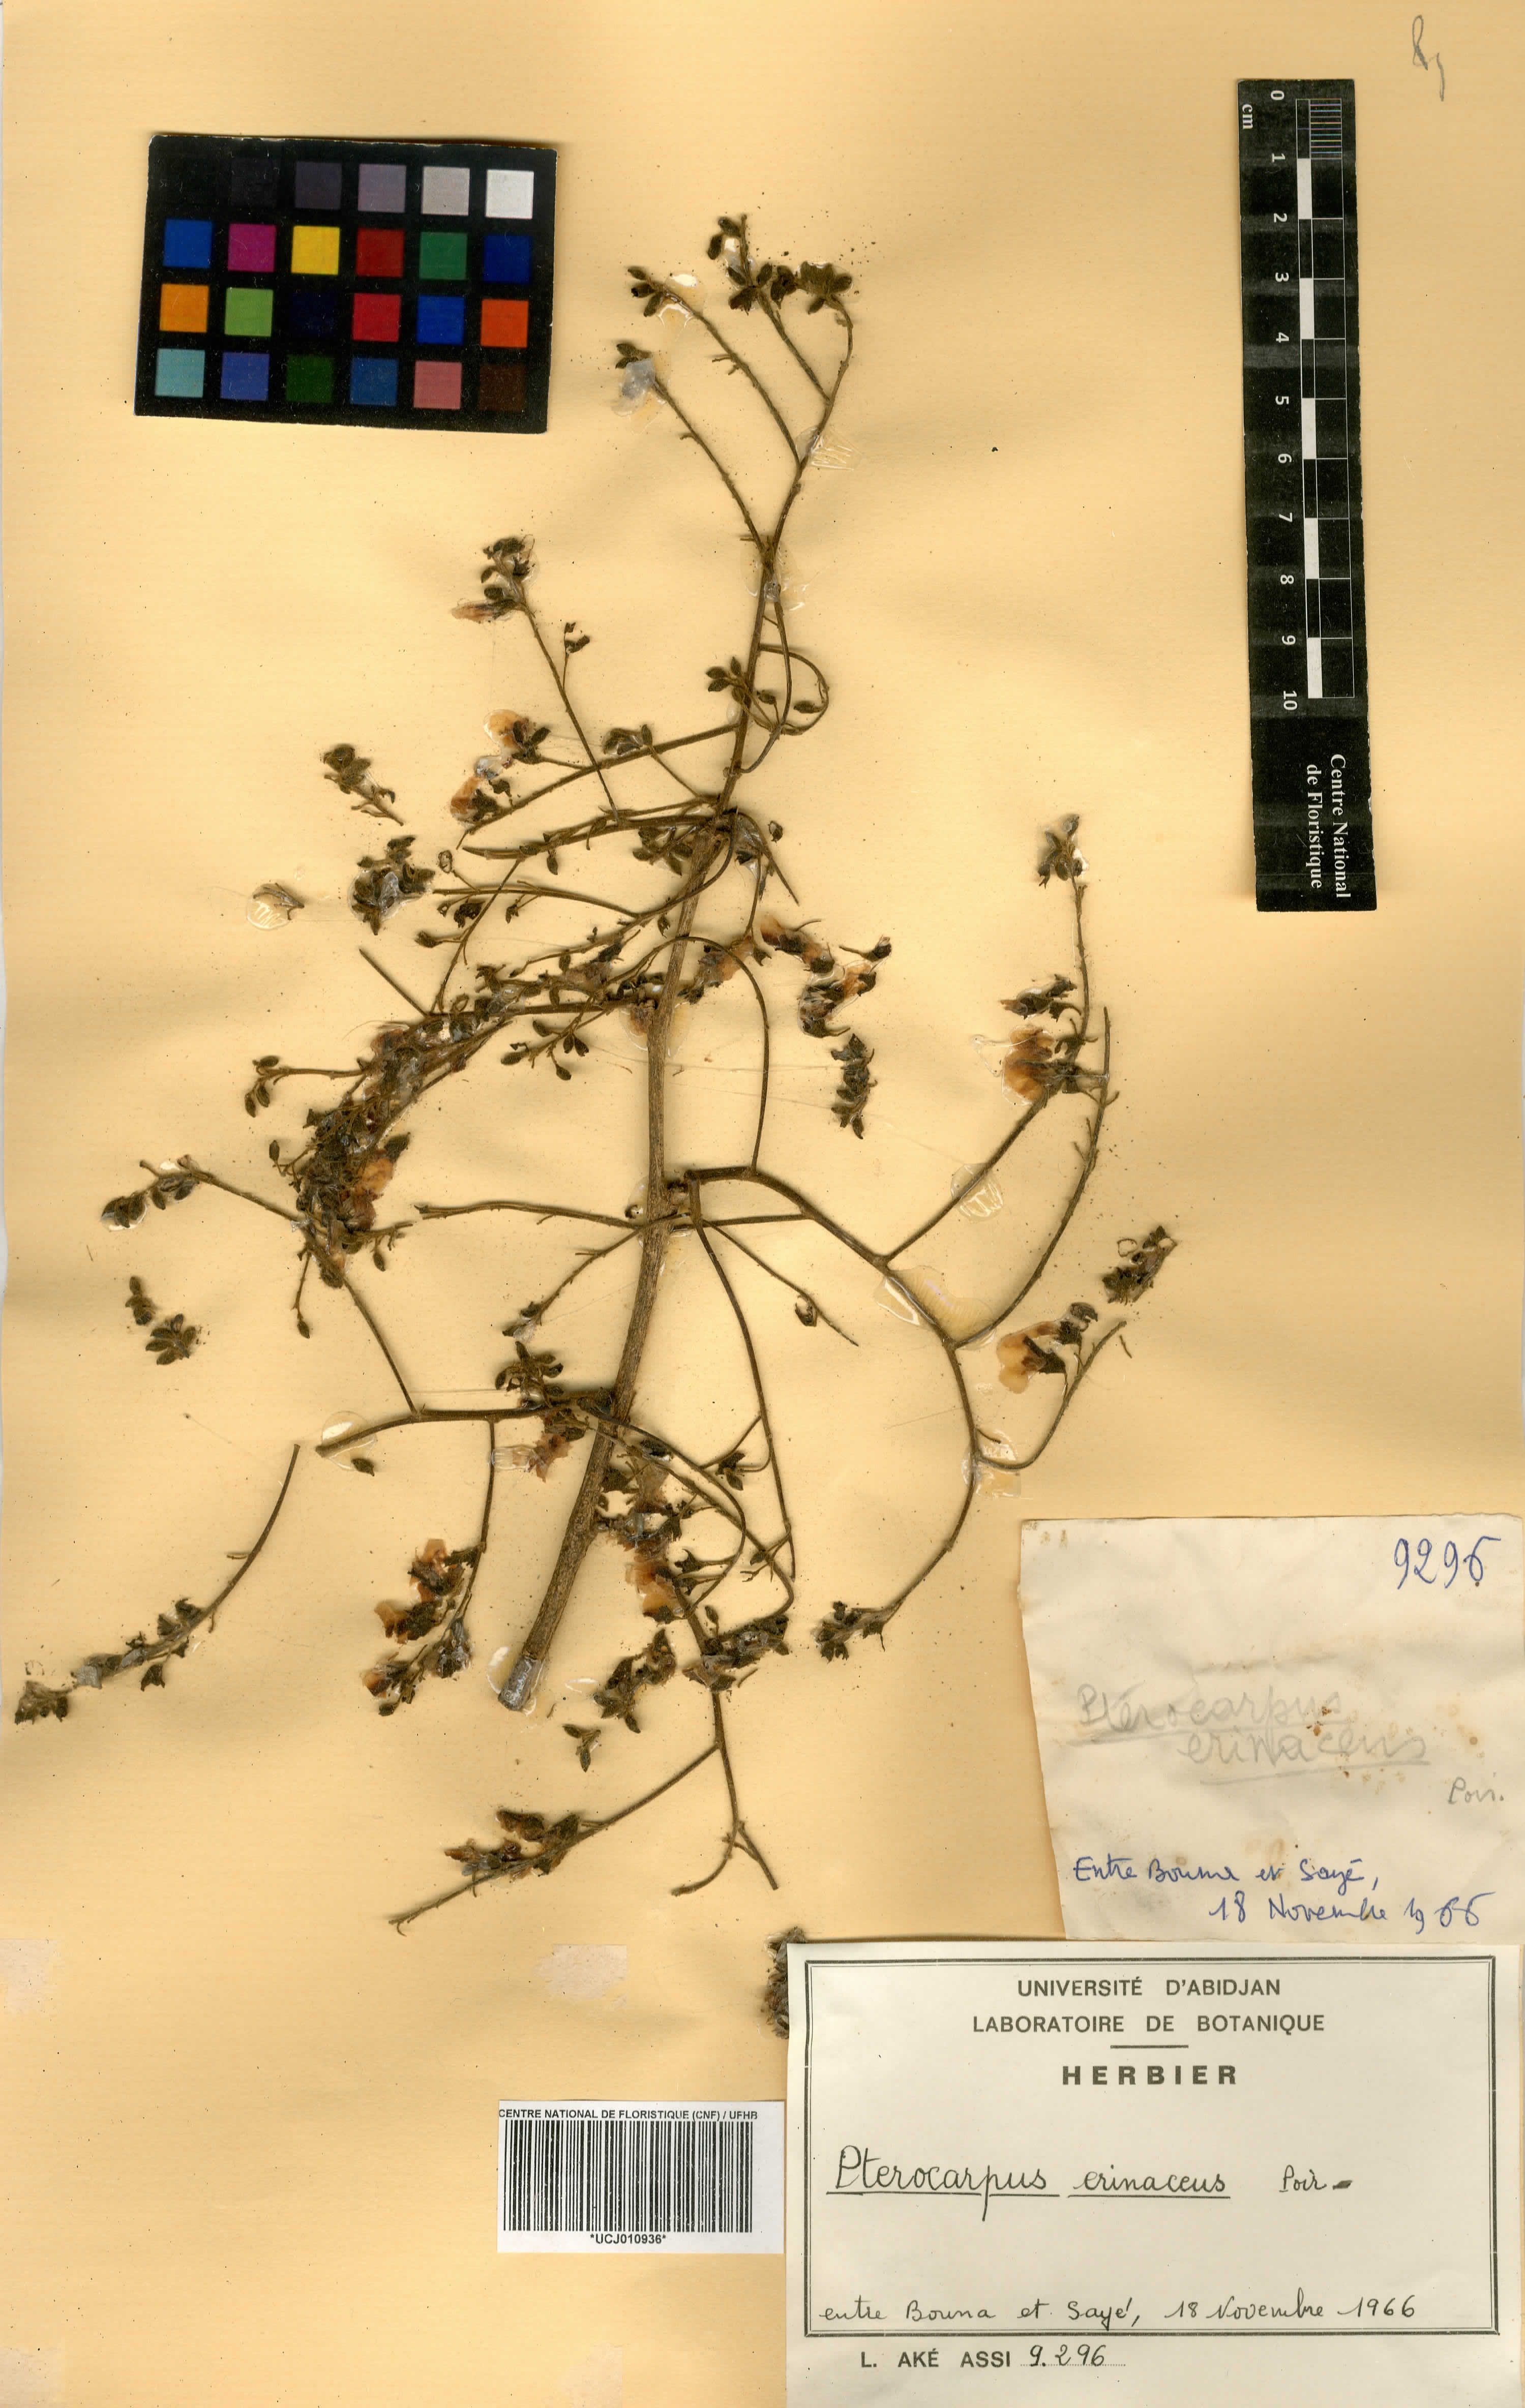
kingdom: Plantae
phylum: Tracheophyta
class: Magnoliopsida
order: Fabales
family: Fabaceae
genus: Pterocarpus
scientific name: Pterocarpus erinaceus
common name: African rosewood
